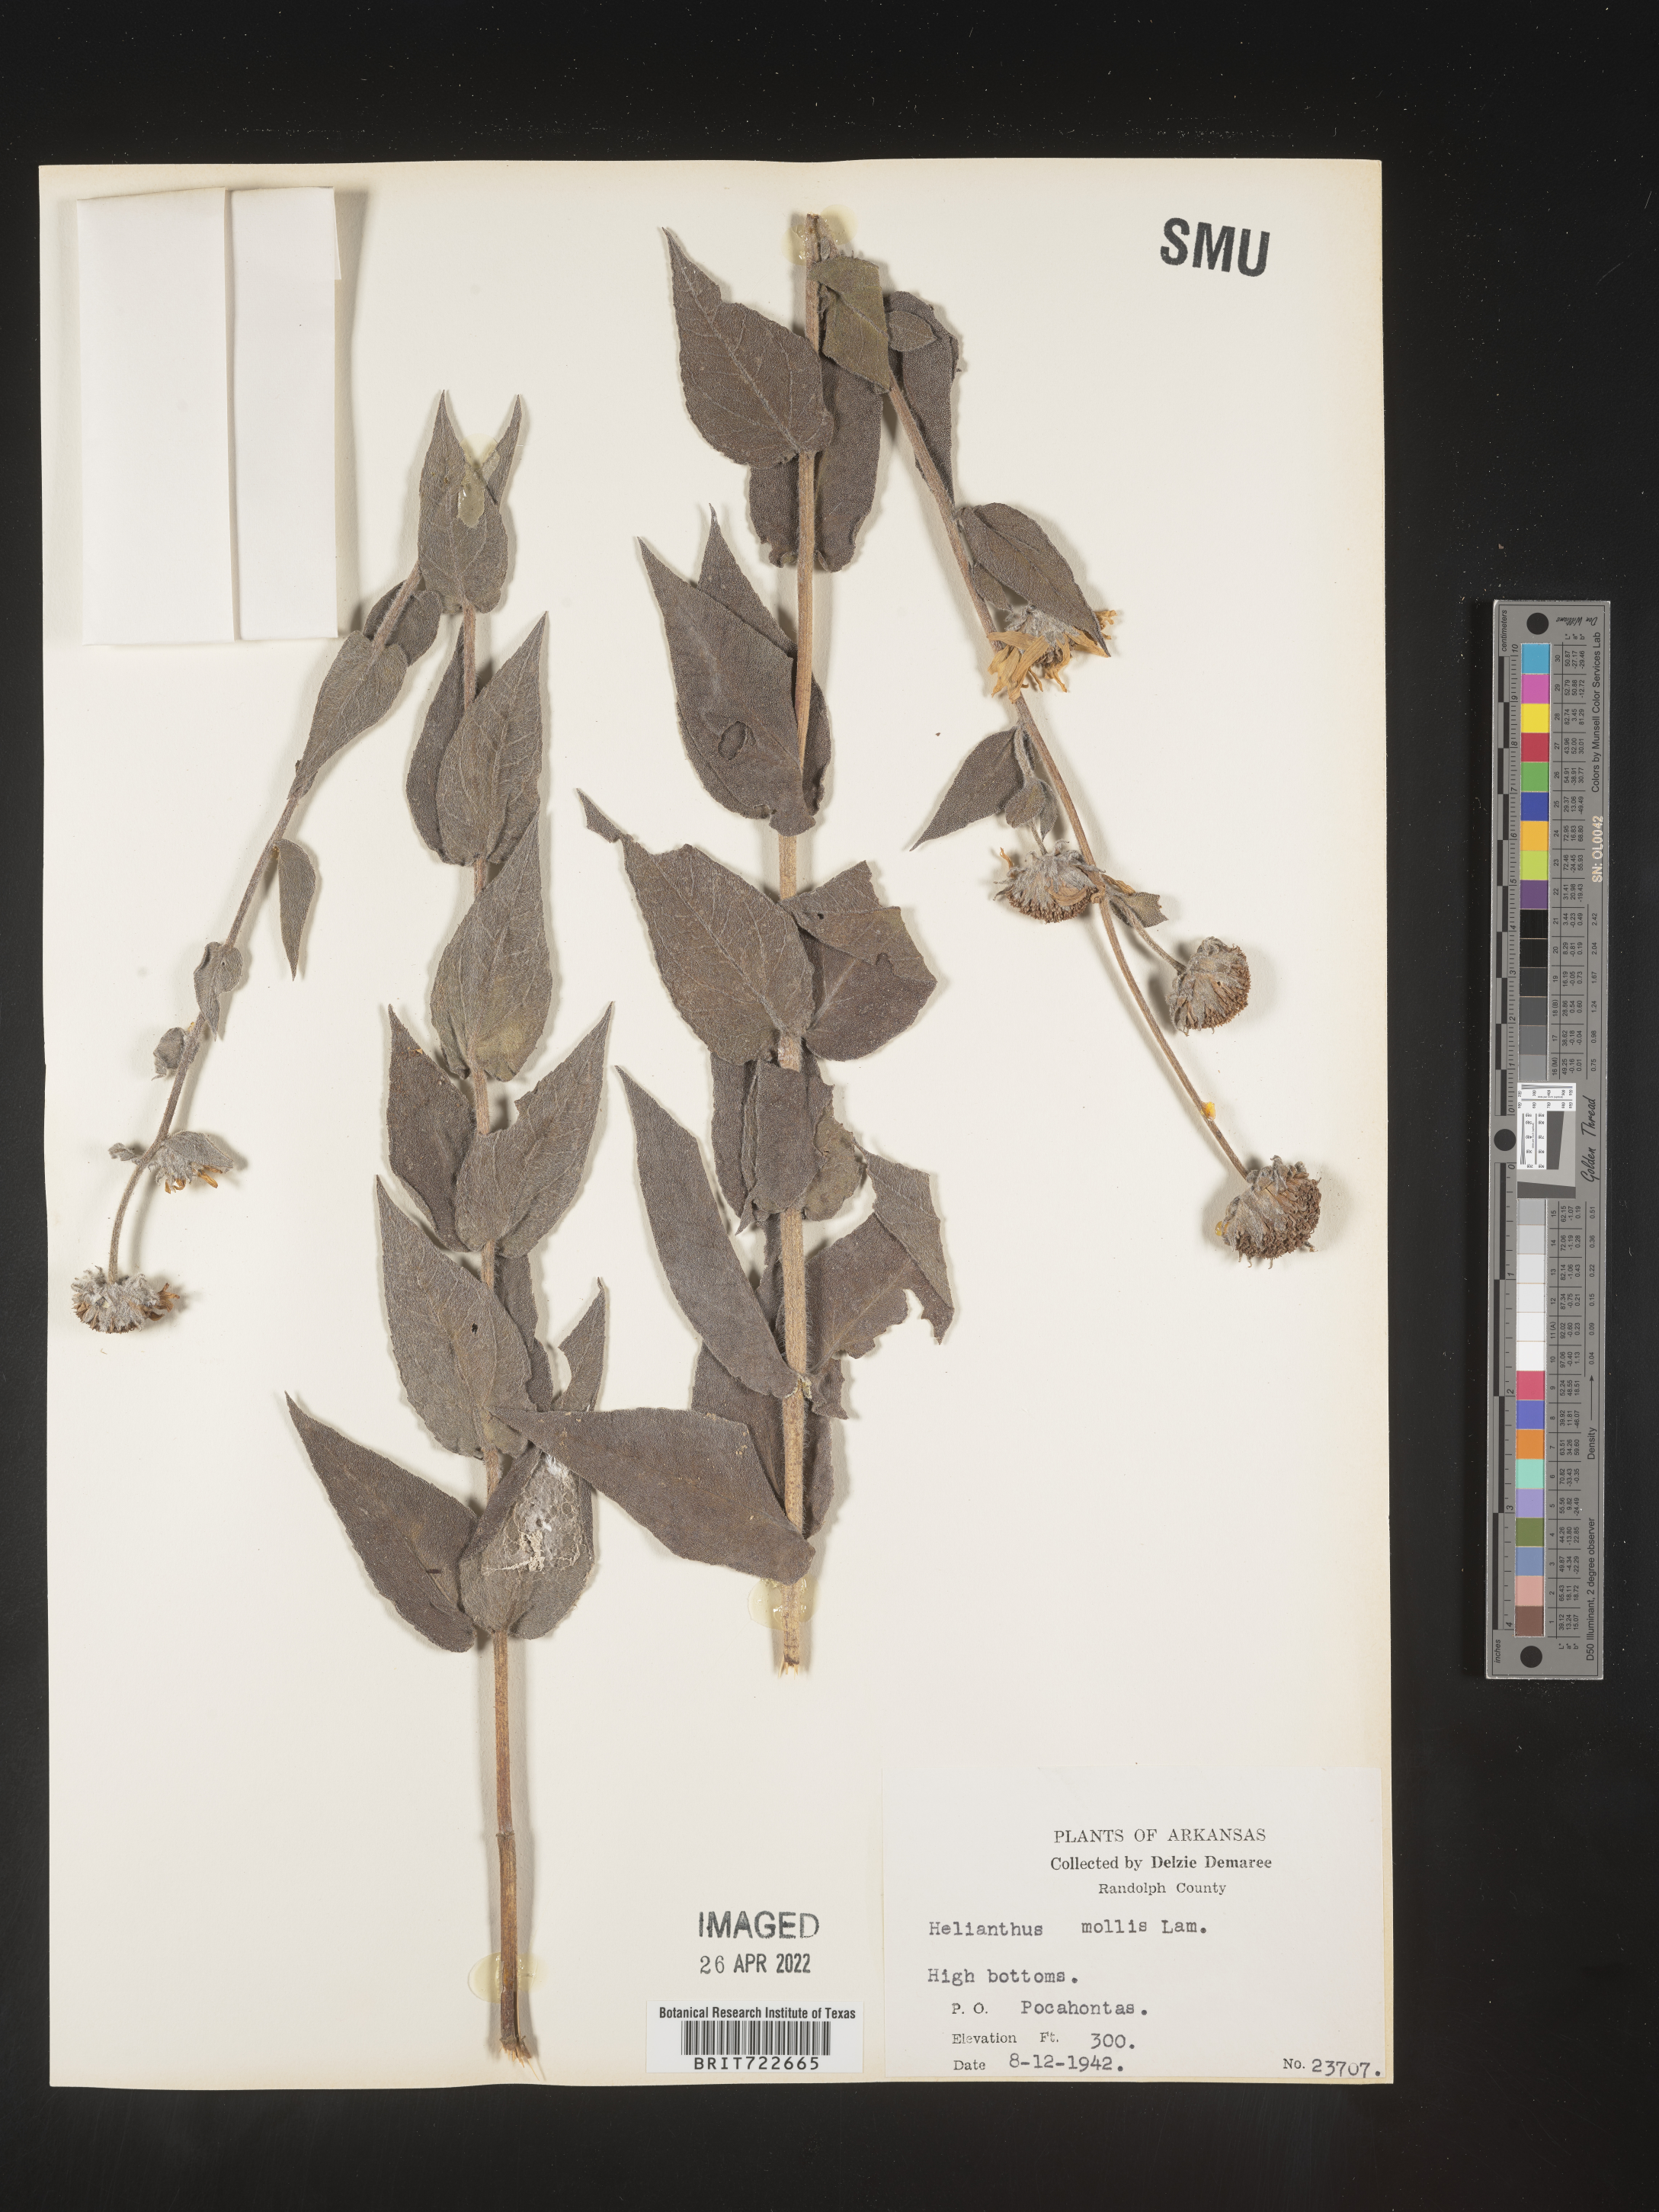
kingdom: Plantae
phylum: Tracheophyta
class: Magnoliopsida
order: Asterales
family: Asteraceae
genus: Helianthus
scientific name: Helianthus mollis
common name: Ashy sunflower
